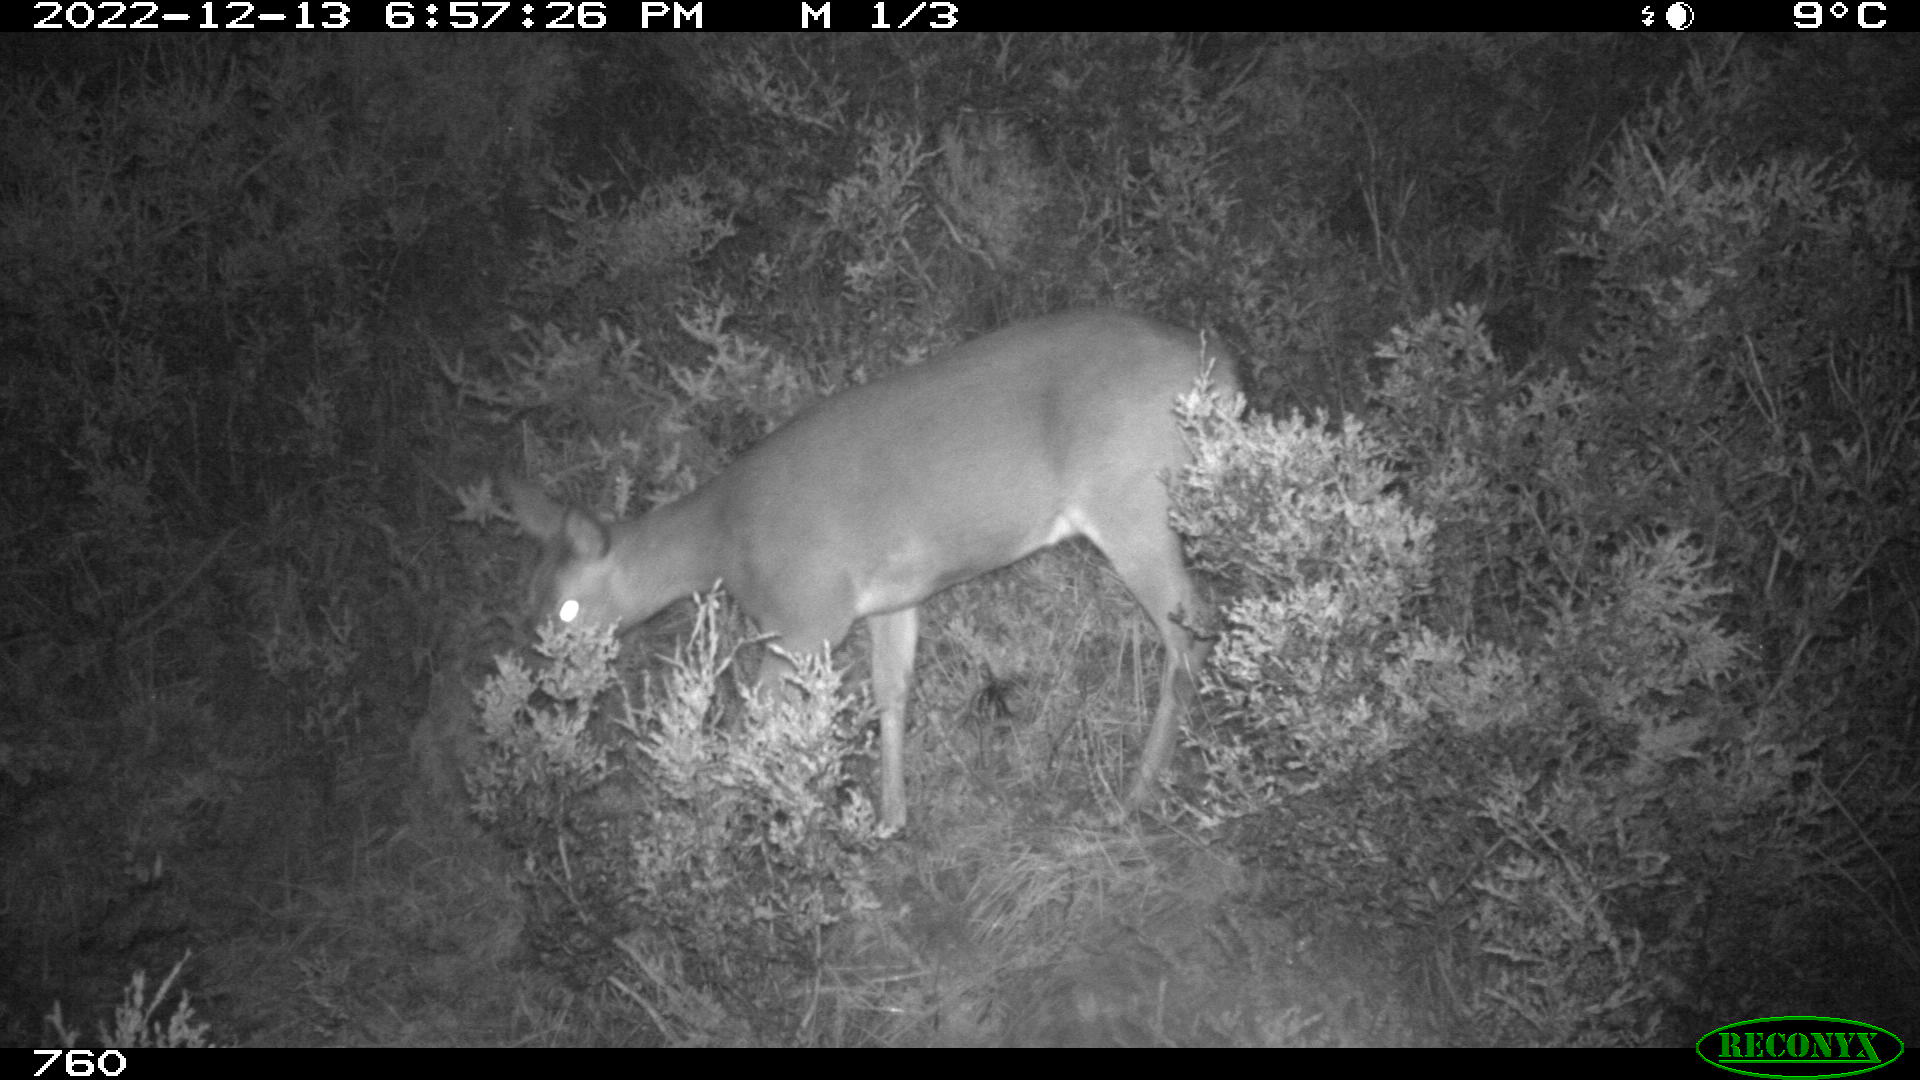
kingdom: Animalia
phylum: Chordata
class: Mammalia
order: Artiodactyla
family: Cervidae
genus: Capreolus
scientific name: Capreolus capreolus
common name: Western roe deer
